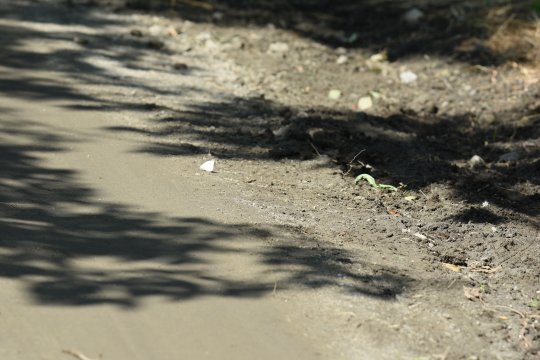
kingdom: Animalia
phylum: Arthropoda
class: Insecta
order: Lepidoptera
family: Pieridae
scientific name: Pieridae
